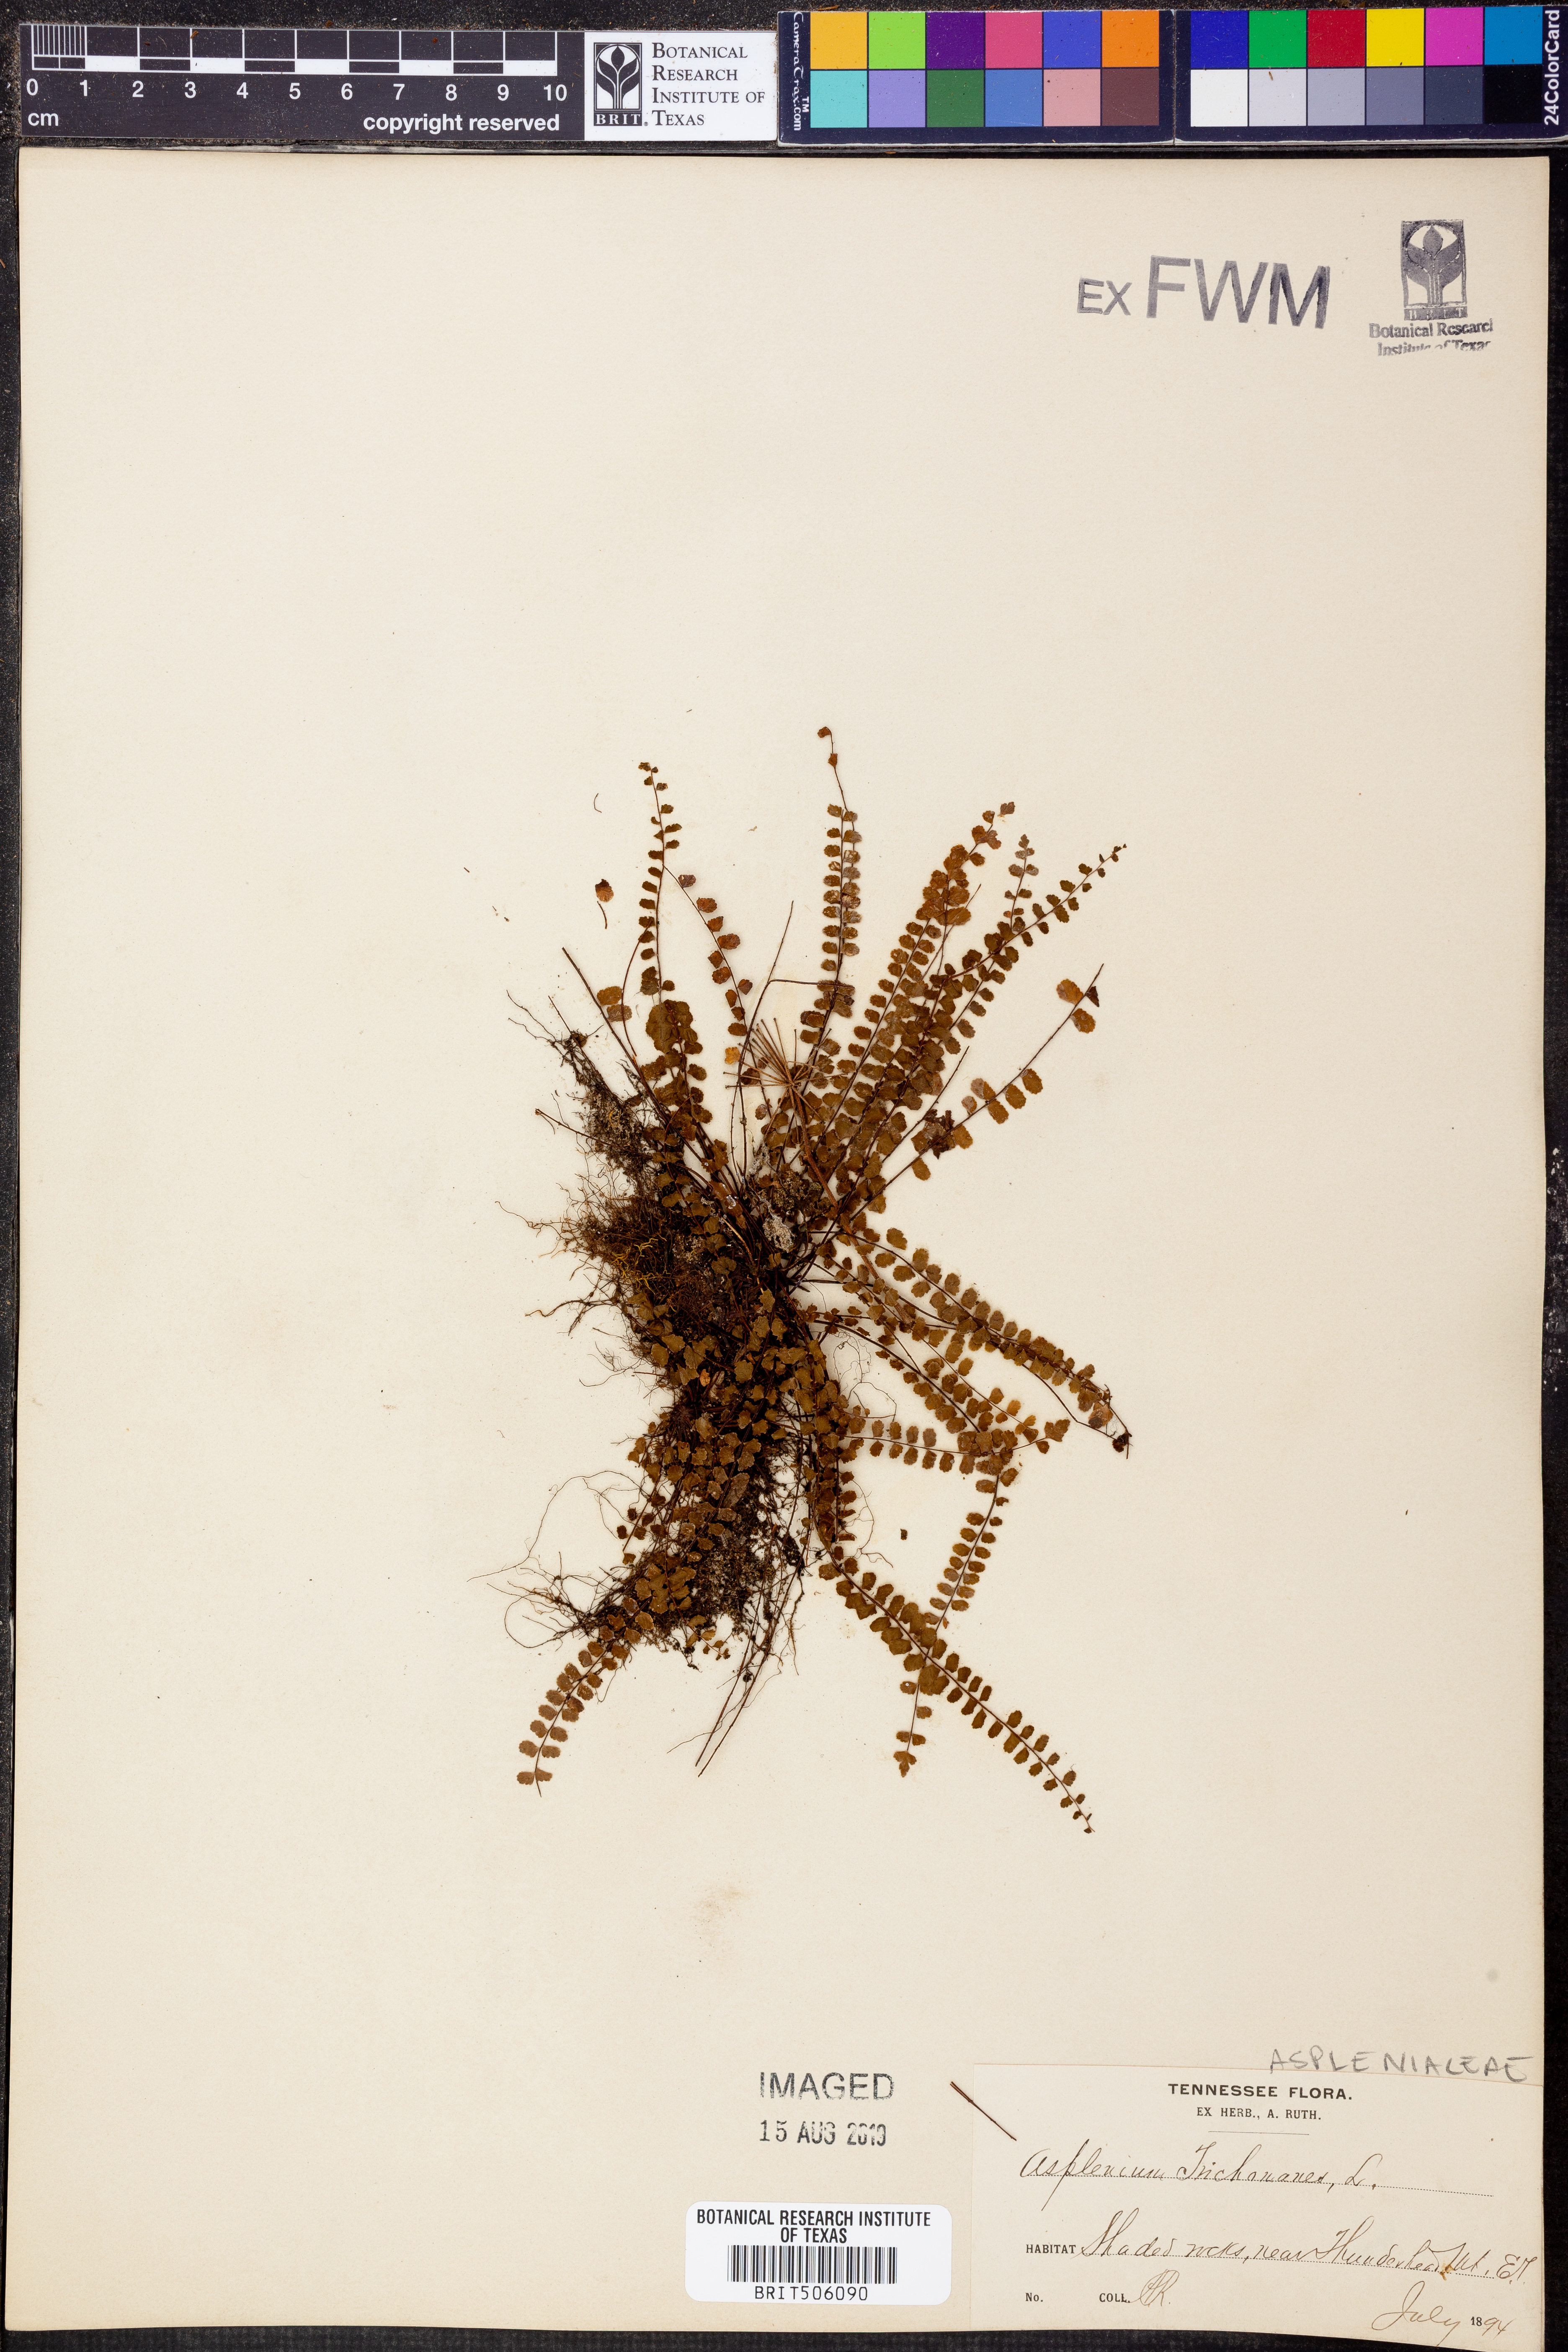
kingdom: Plantae
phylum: Tracheophyta
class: Polypodiopsida
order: Polypodiales
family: Aspleniaceae
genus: Asplenium
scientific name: Asplenium trichomanes
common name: Maidenhair spleenwort
